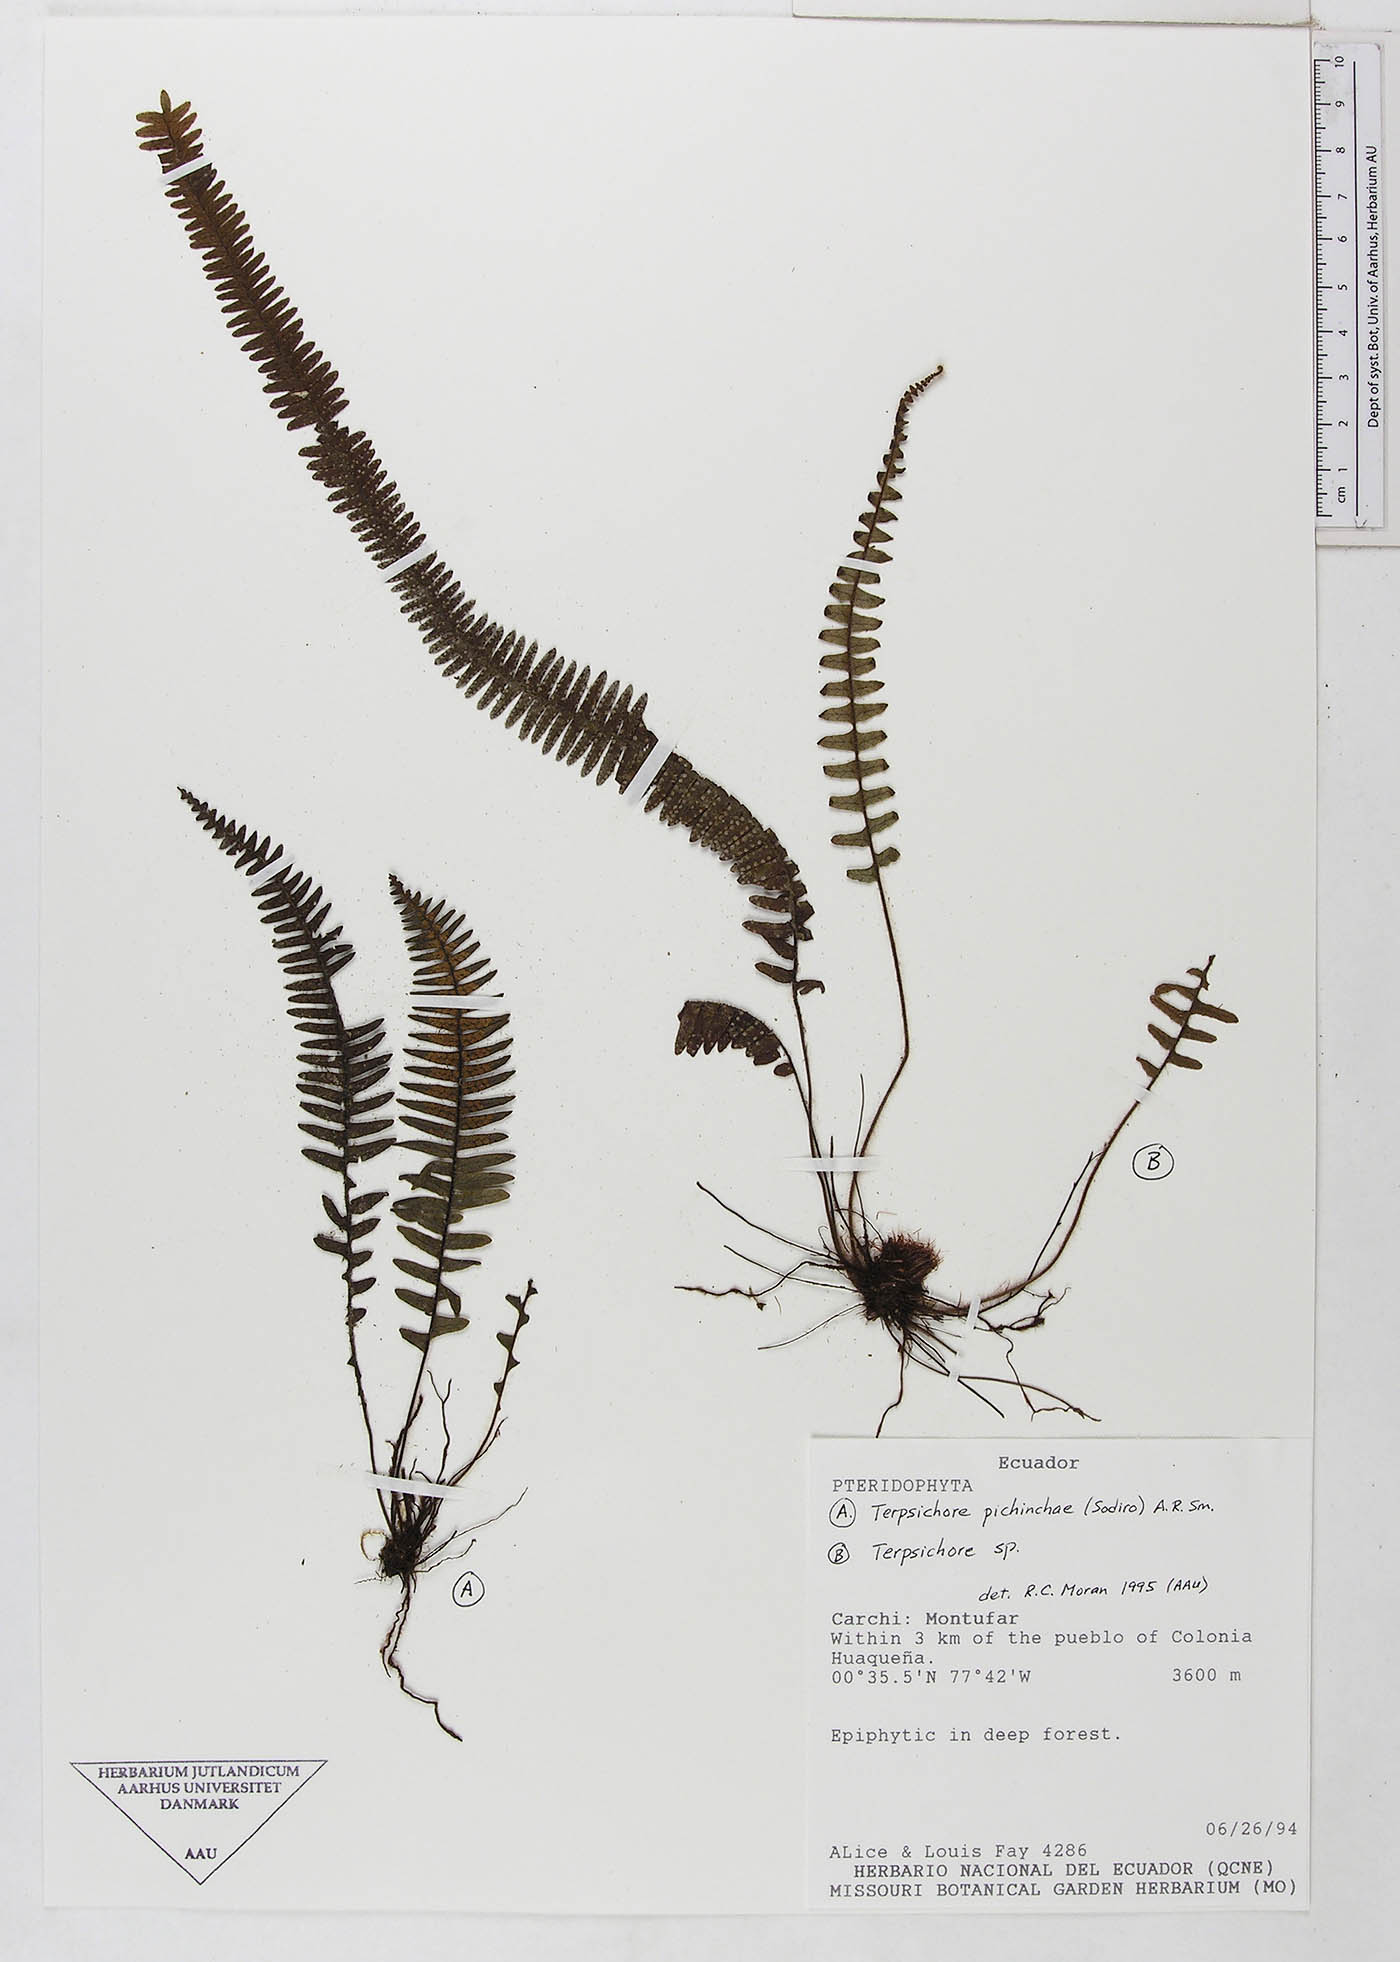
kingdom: Plantae
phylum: Tracheophyta
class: Polypodiopsida
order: Polypodiales
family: Polypodiaceae
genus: Terpsichore
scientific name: Terpsichore
